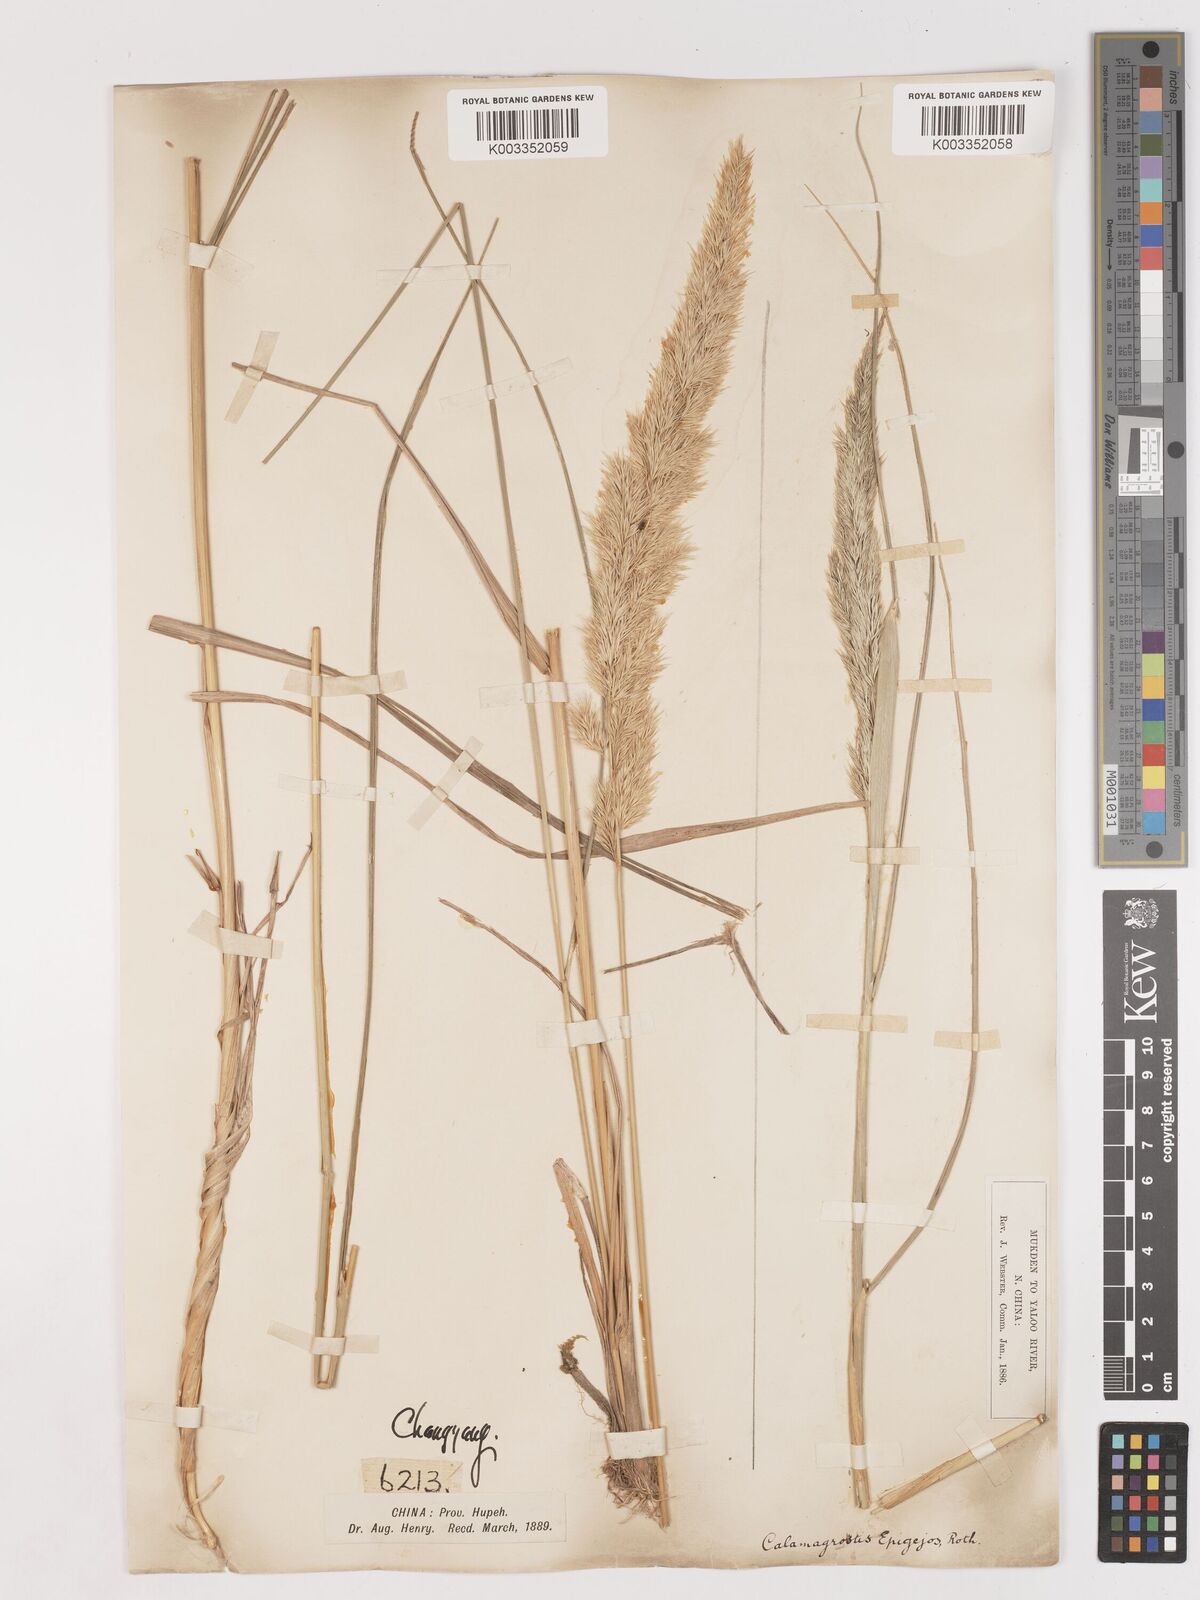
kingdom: Plantae
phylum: Tracheophyta
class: Liliopsida
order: Poales
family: Poaceae
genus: Calamagrostis
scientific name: Calamagrostis epigejos
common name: Wood small-reed
